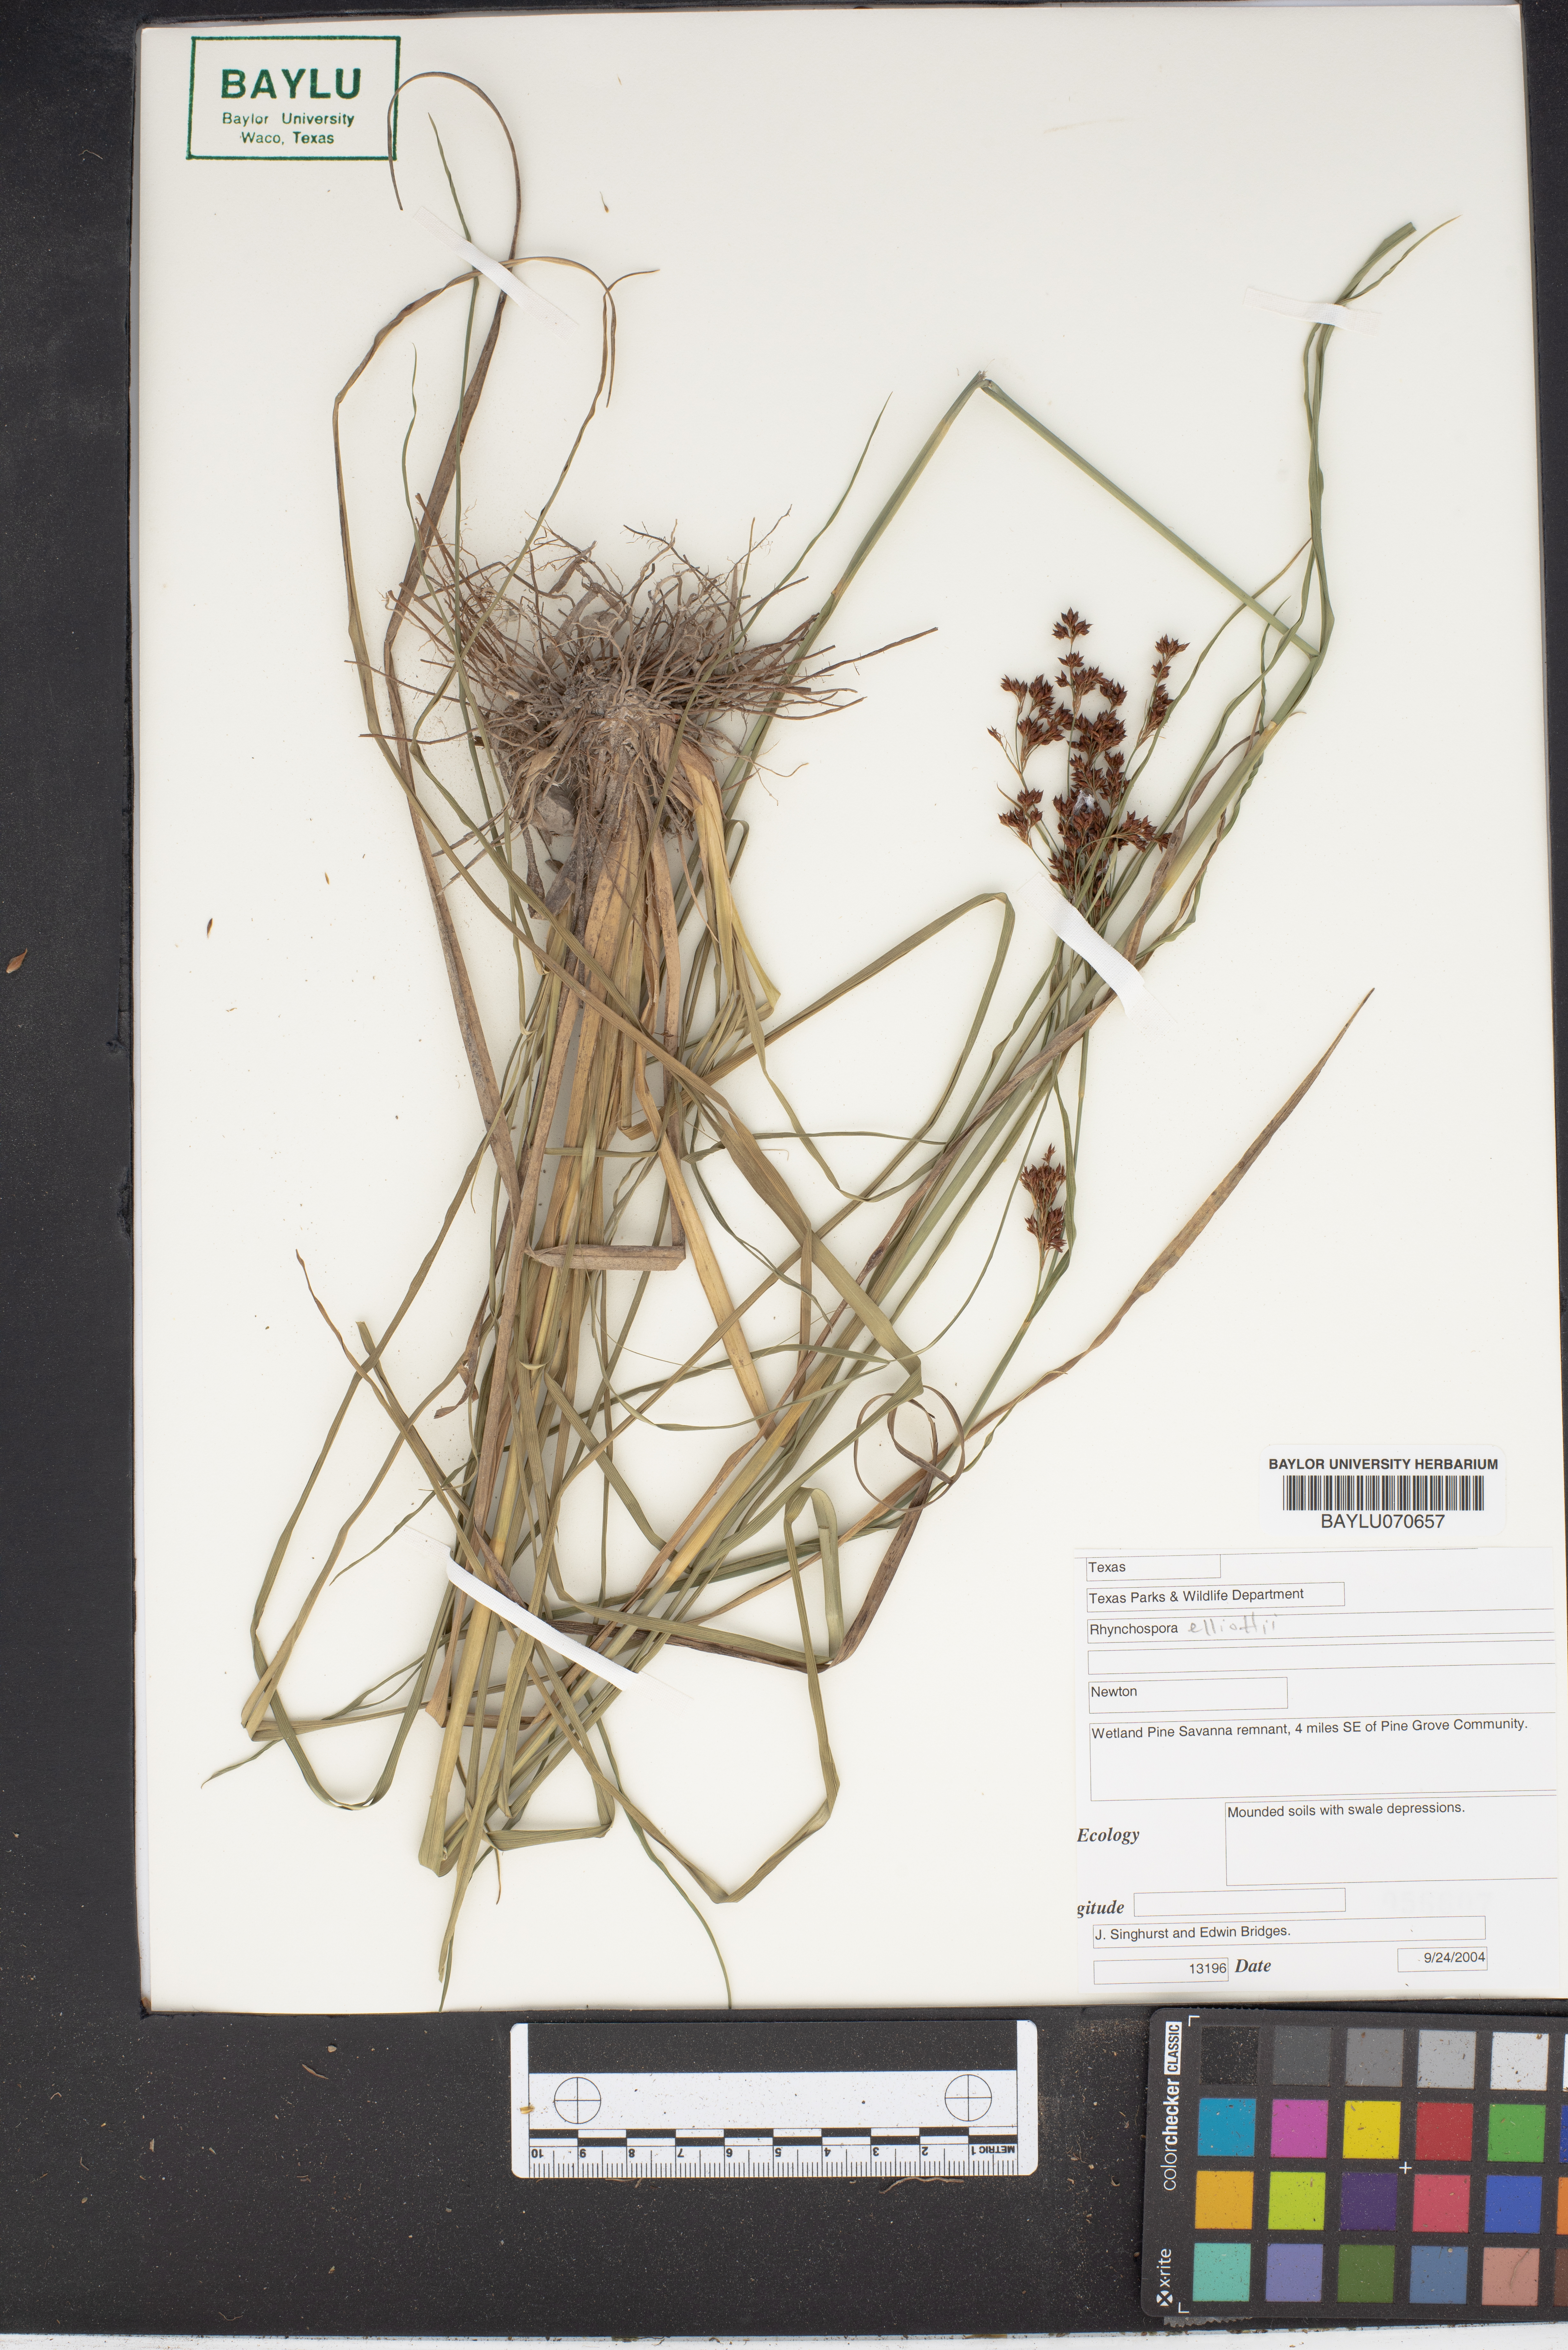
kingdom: Plantae
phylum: Tracheophyta
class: Liliopsida
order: Poales
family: Cyperaceae
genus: Rhynchospora
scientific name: Rhynchospora elliottii
